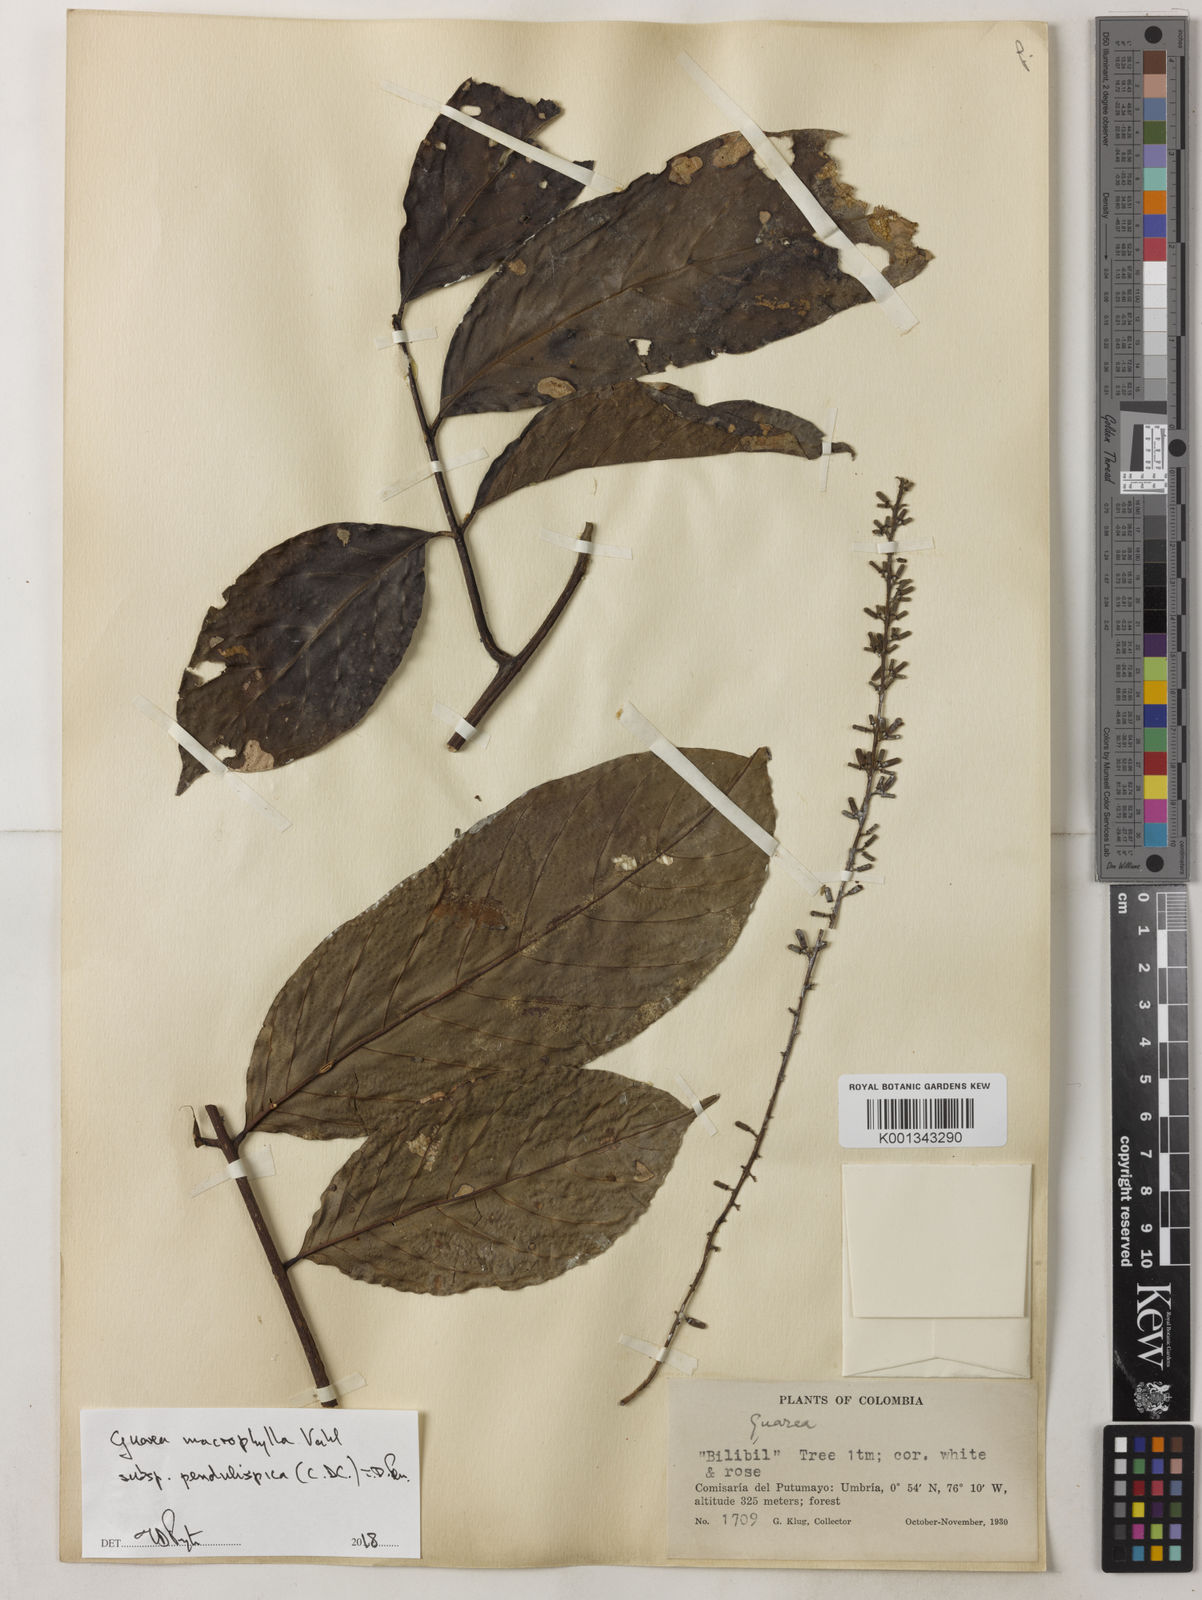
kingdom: Plantae
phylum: Tracheophyta
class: Magnoliopsida
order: Sapindales
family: Meliaceae
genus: Guarea
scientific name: Guarea macrophylla
